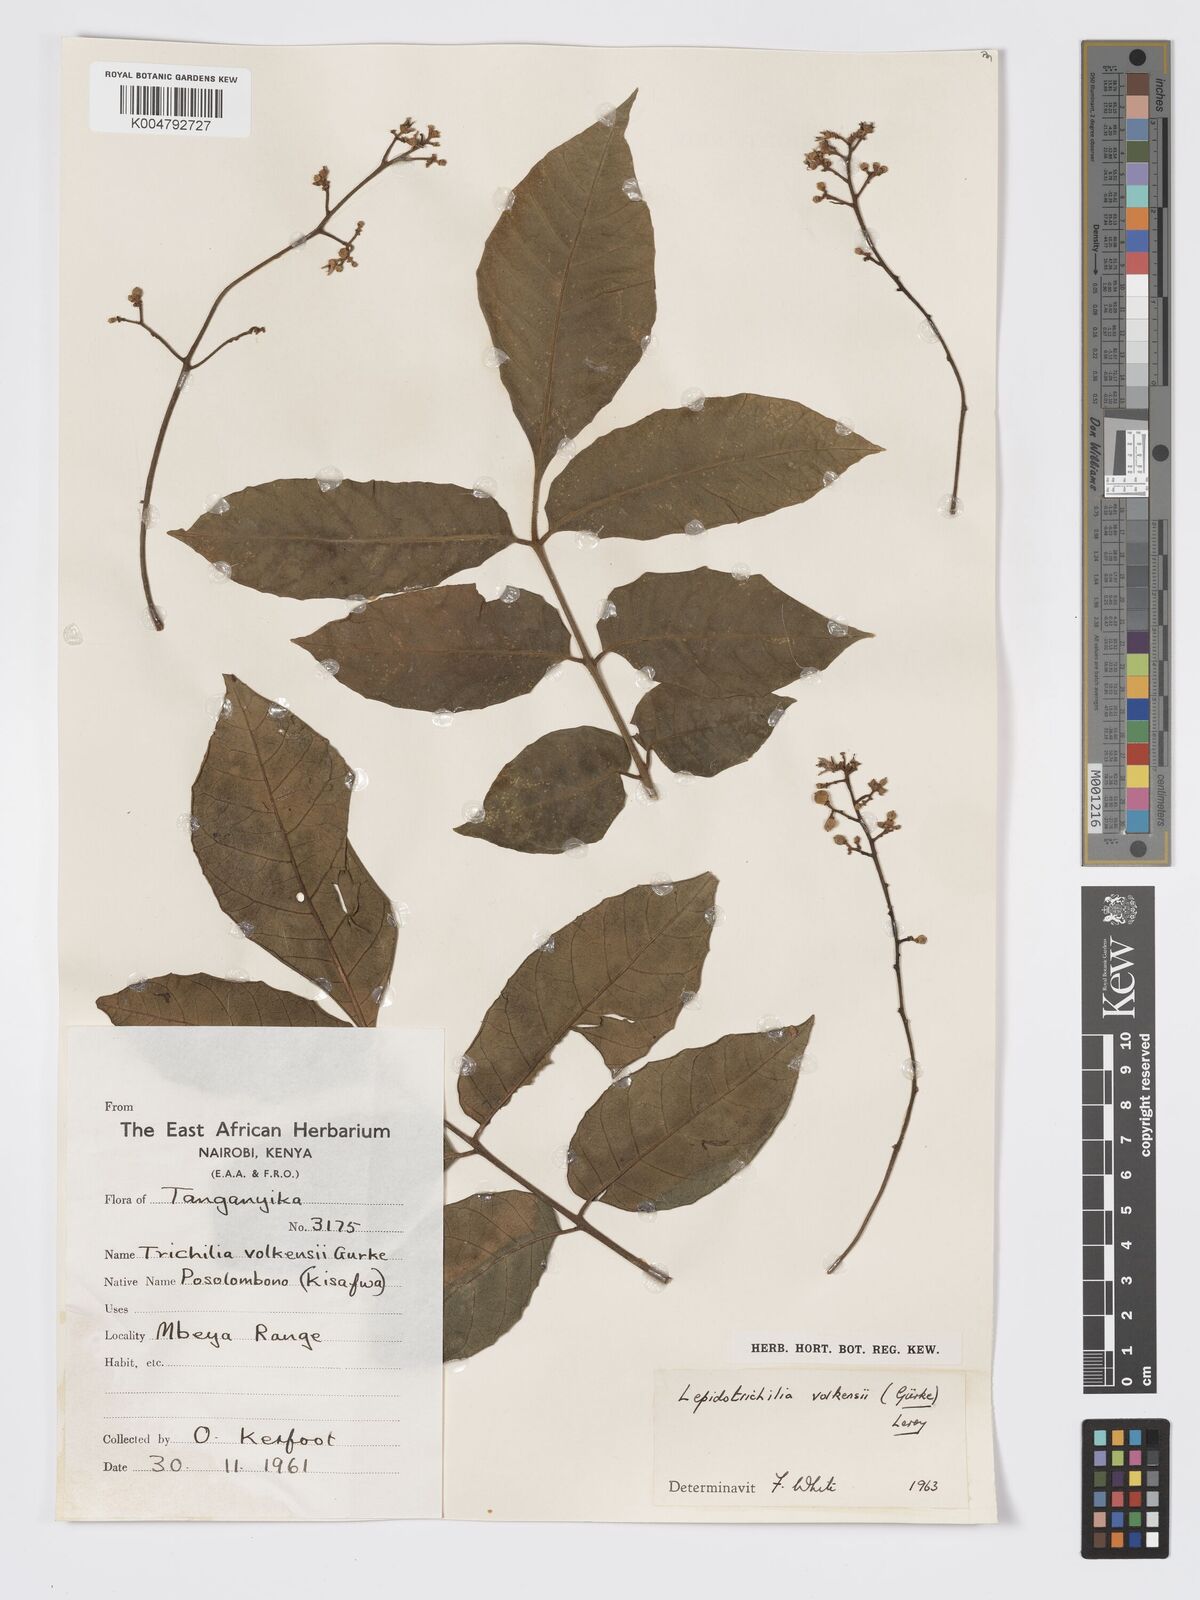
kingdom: Plantae
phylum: Tracheophyta
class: Magnoliopsida
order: Sapindales
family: Meliaceae
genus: Lepidotrichilia
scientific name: Lepidotrichilia volkensii
